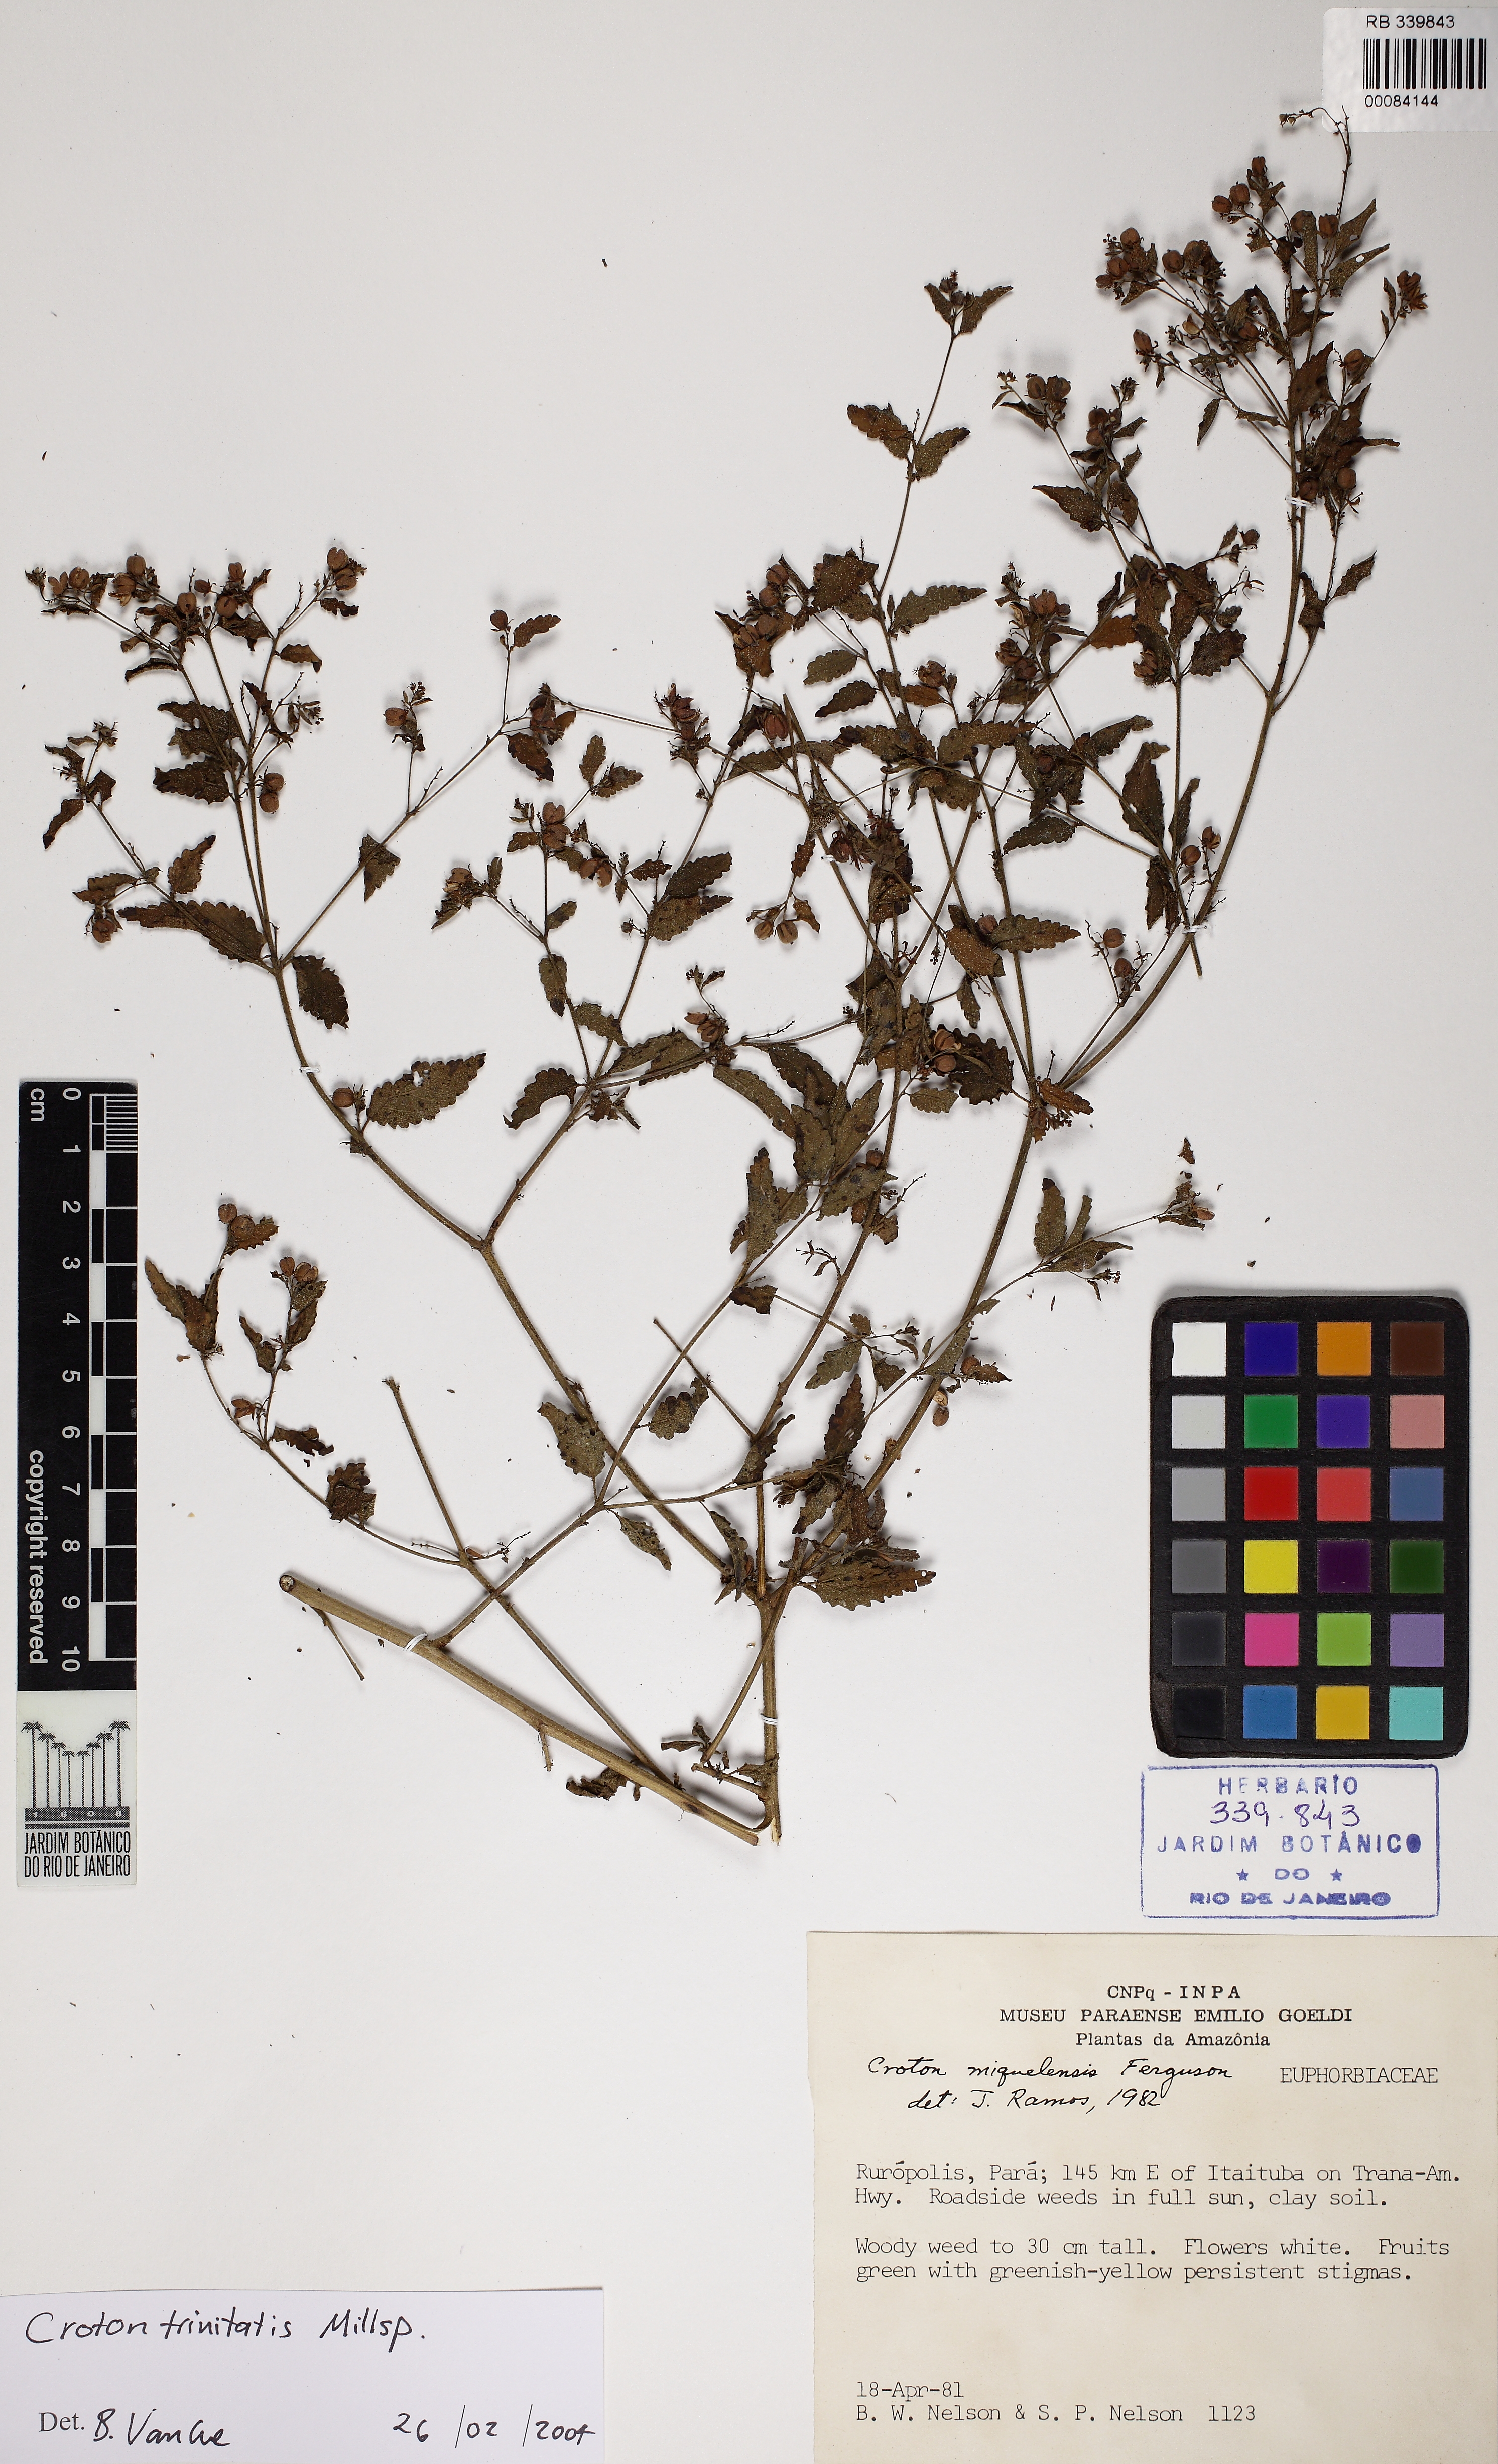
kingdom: Plantae
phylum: Tracheophyta
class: Magnoliopsida
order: Malpighiales
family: Euphorbiaceae
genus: Croton
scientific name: Croton trinitatis
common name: Roadside croton
